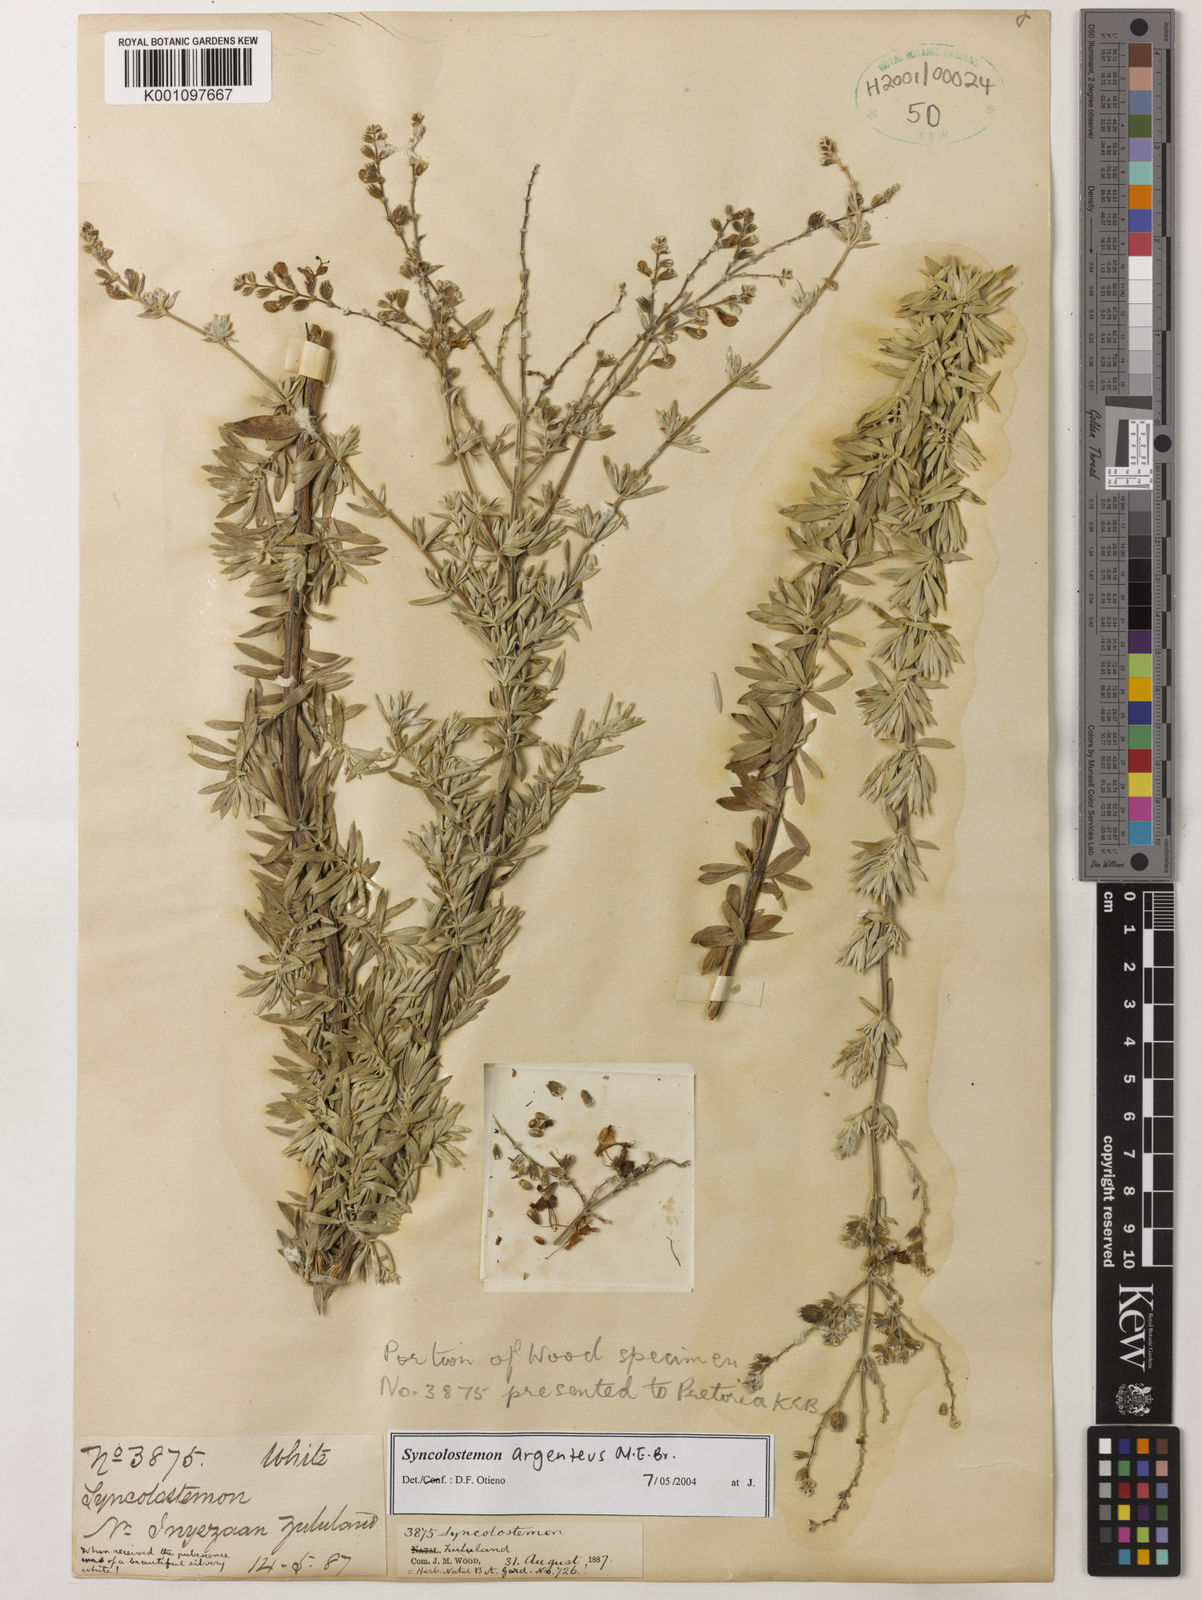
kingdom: Plantae
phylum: Tracheophyta
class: Magnoliopsida
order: Lamiales
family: Lamiaceae
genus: Syncolostemon
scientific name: Syncolostemon argenteus
